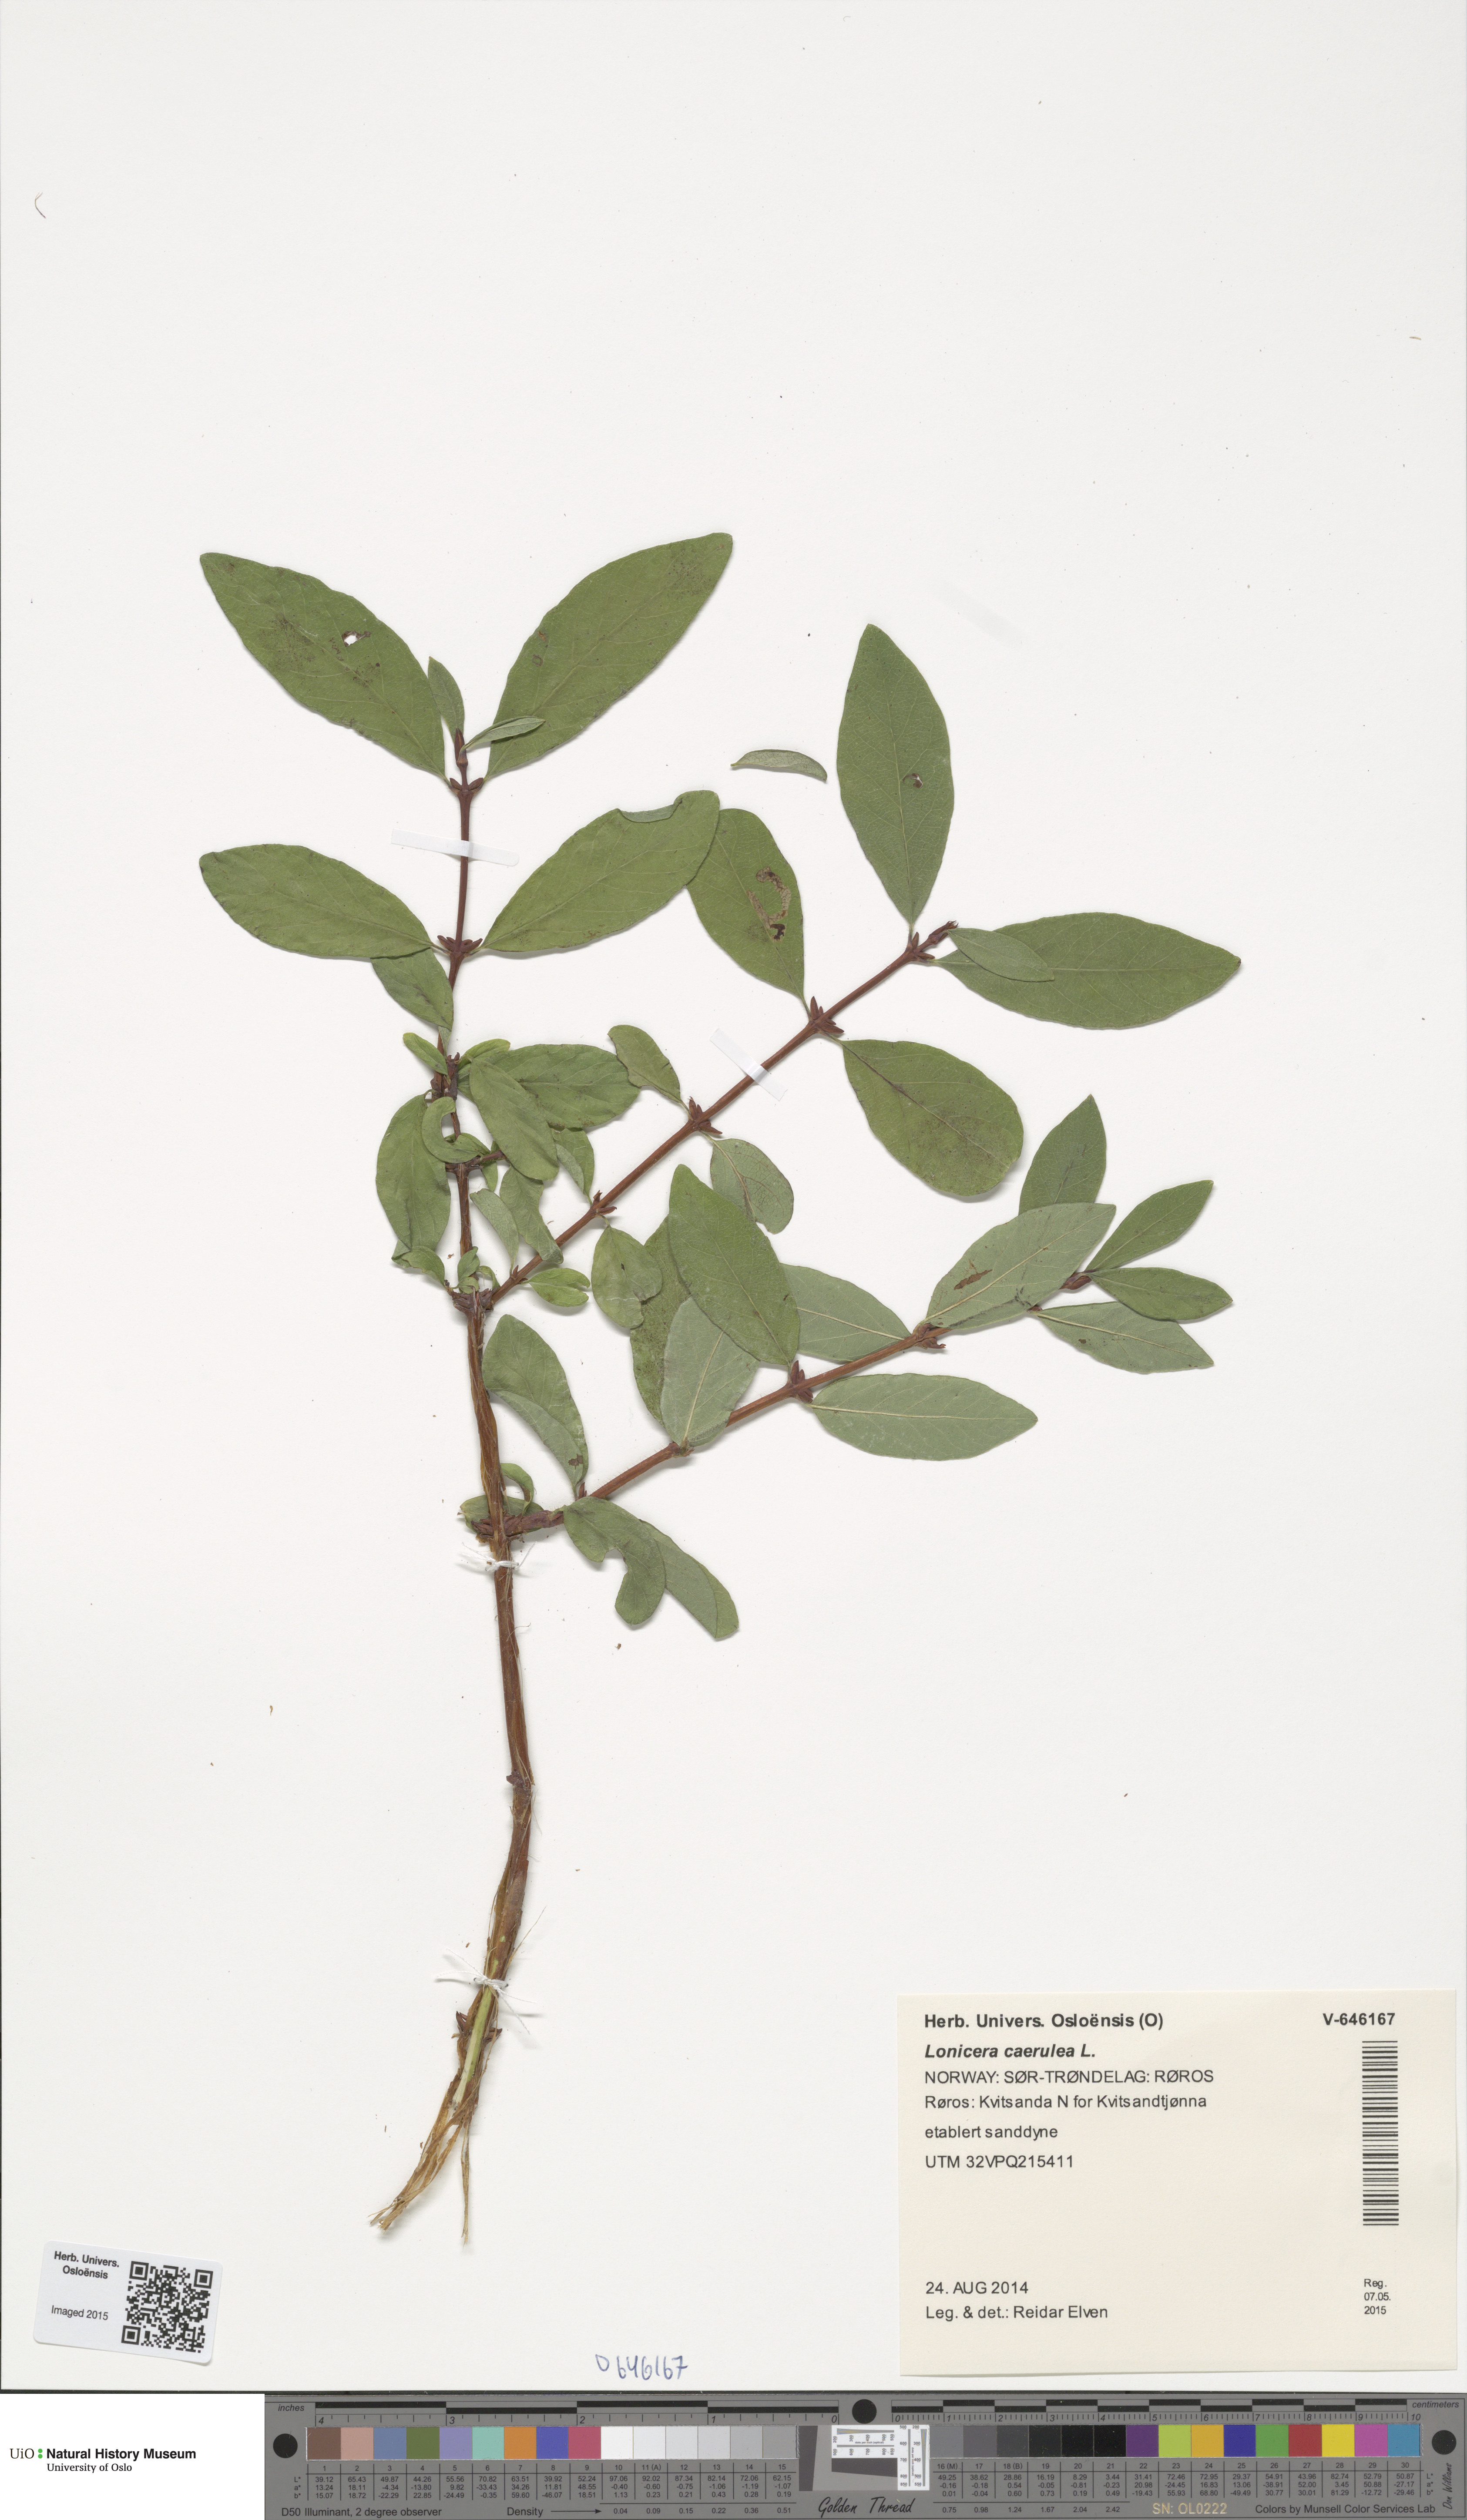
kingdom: Plantae
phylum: Tracheophyta
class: Magnoliopsida
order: Dipsacales
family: Caprifoliaceae
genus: Lonicera
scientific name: Lonicera caerulea
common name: Blue honeysuckle
